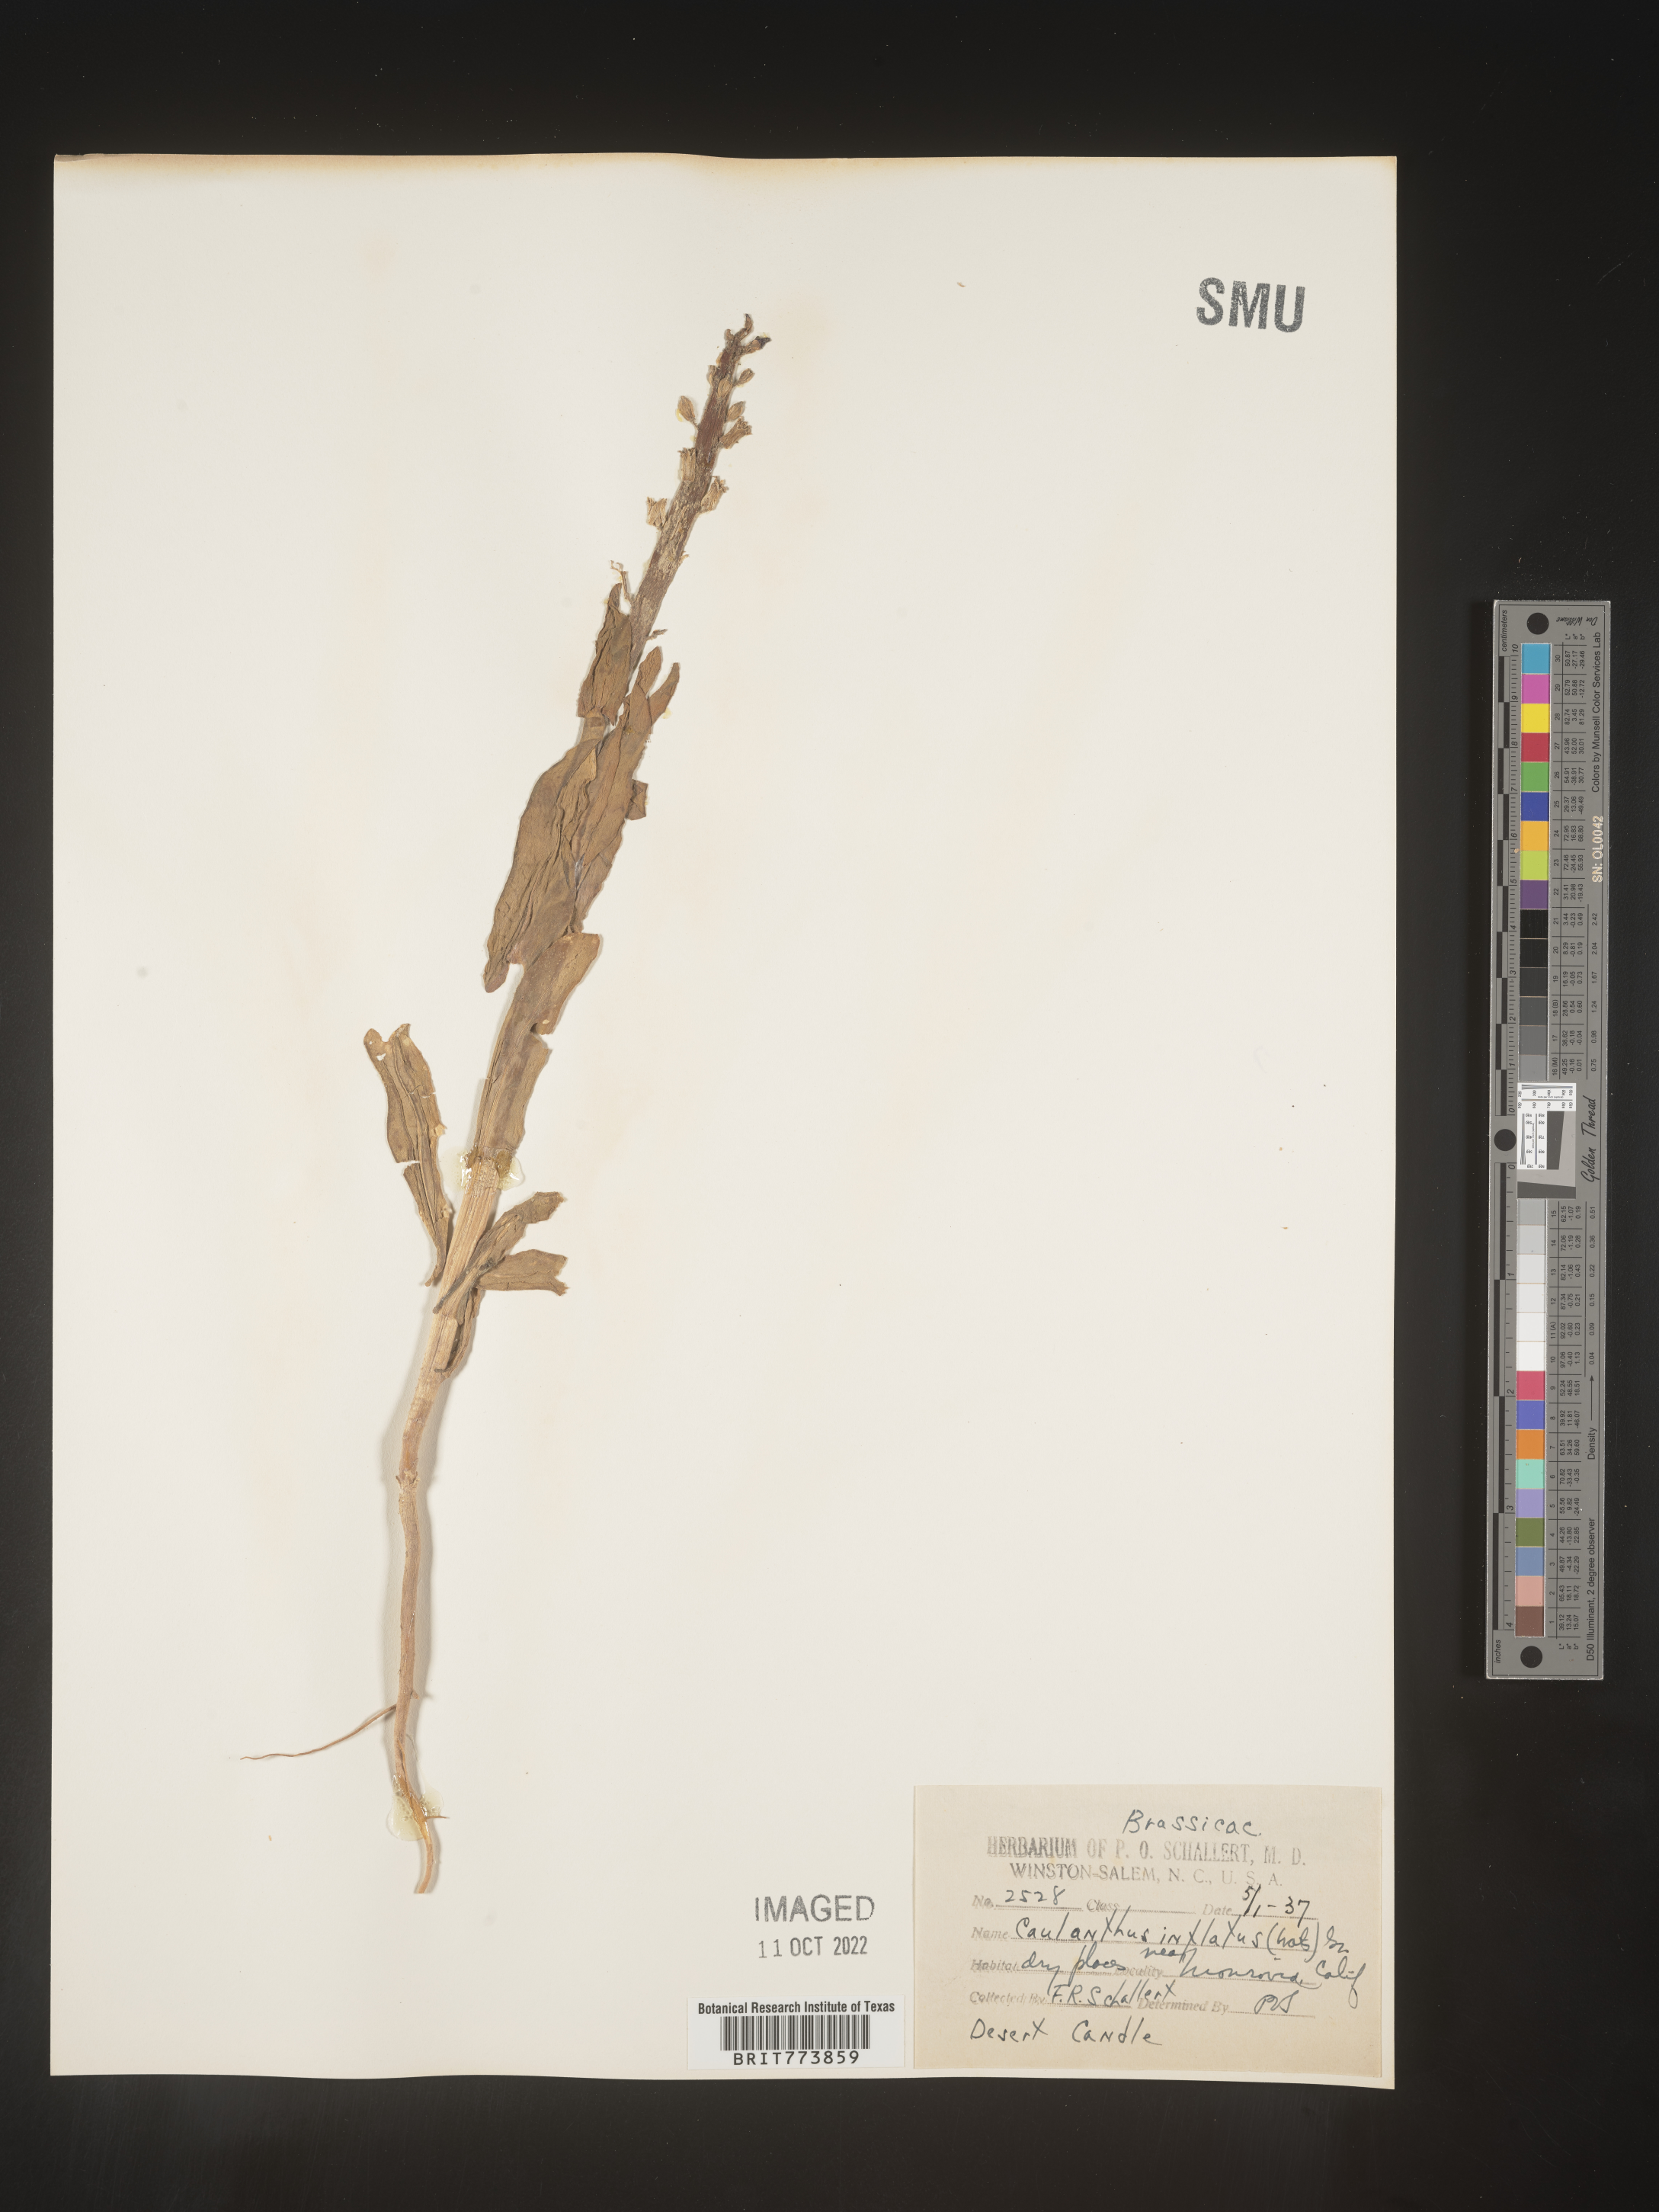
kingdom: Plantae
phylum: Tracheophyta
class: Magnoliopsida
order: Brassicales
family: Brassicaceae
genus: Streptanthus
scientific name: Streptanthus
